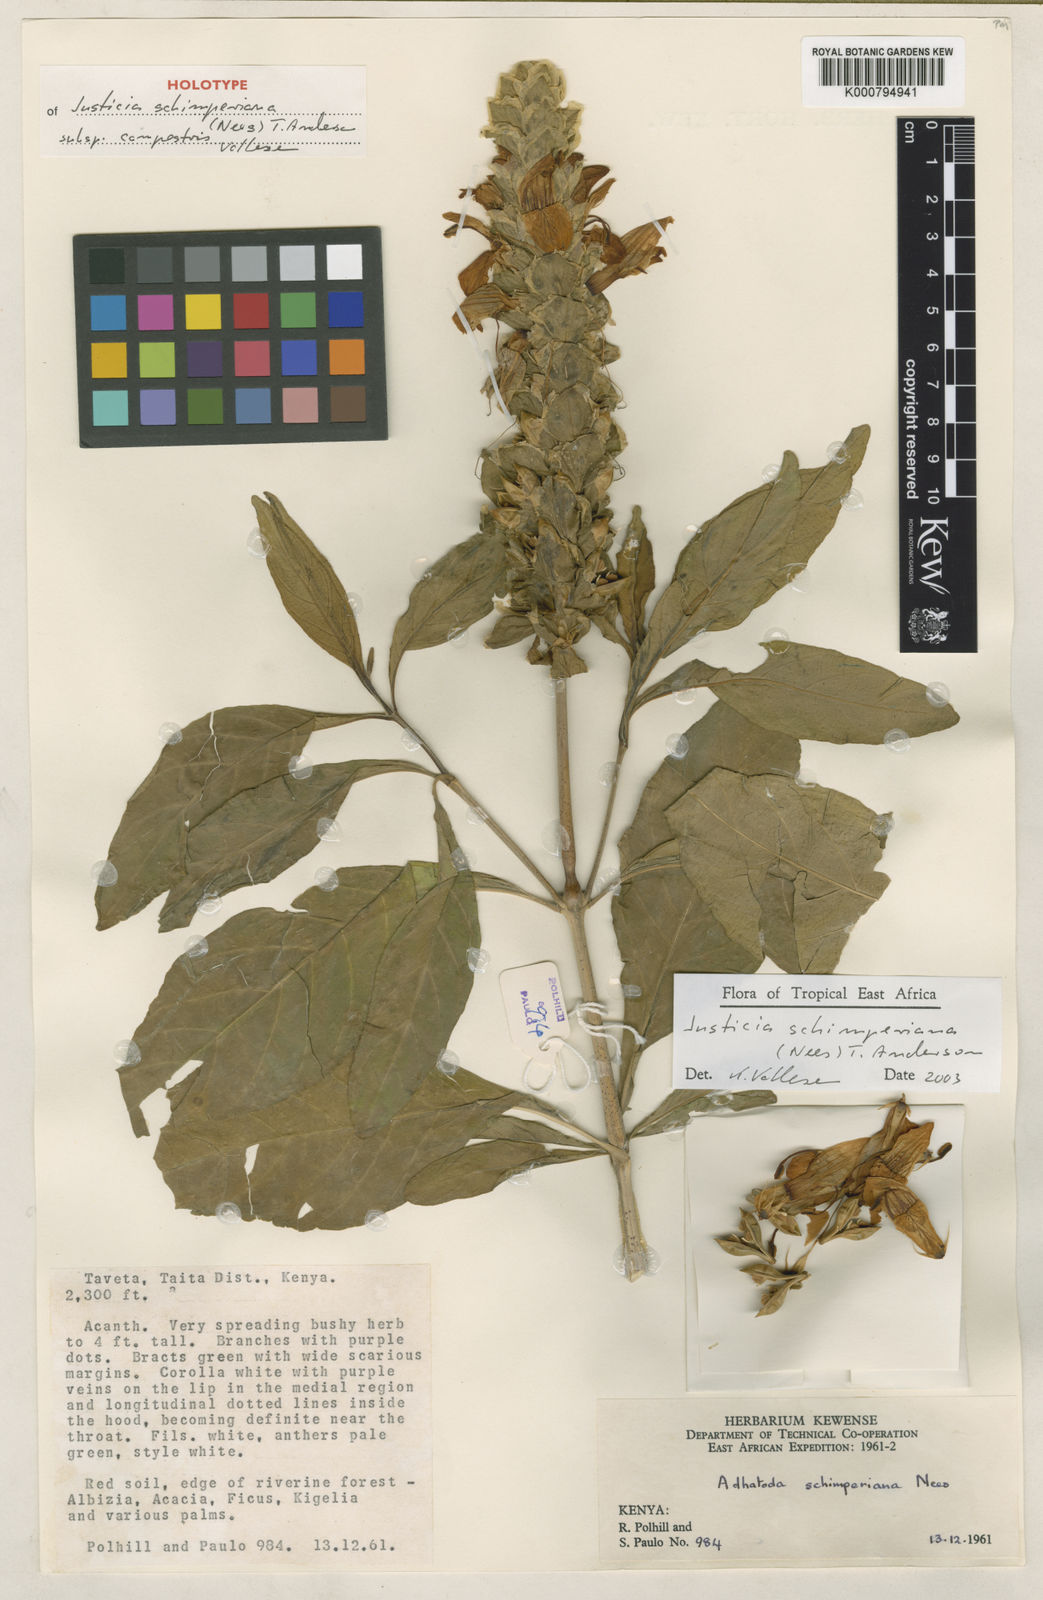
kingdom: Plantae
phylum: Tracheophyta
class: Magnoliopsida
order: Lamiales
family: Acanthaceae
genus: Justicia
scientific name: Justicia schimperiana
